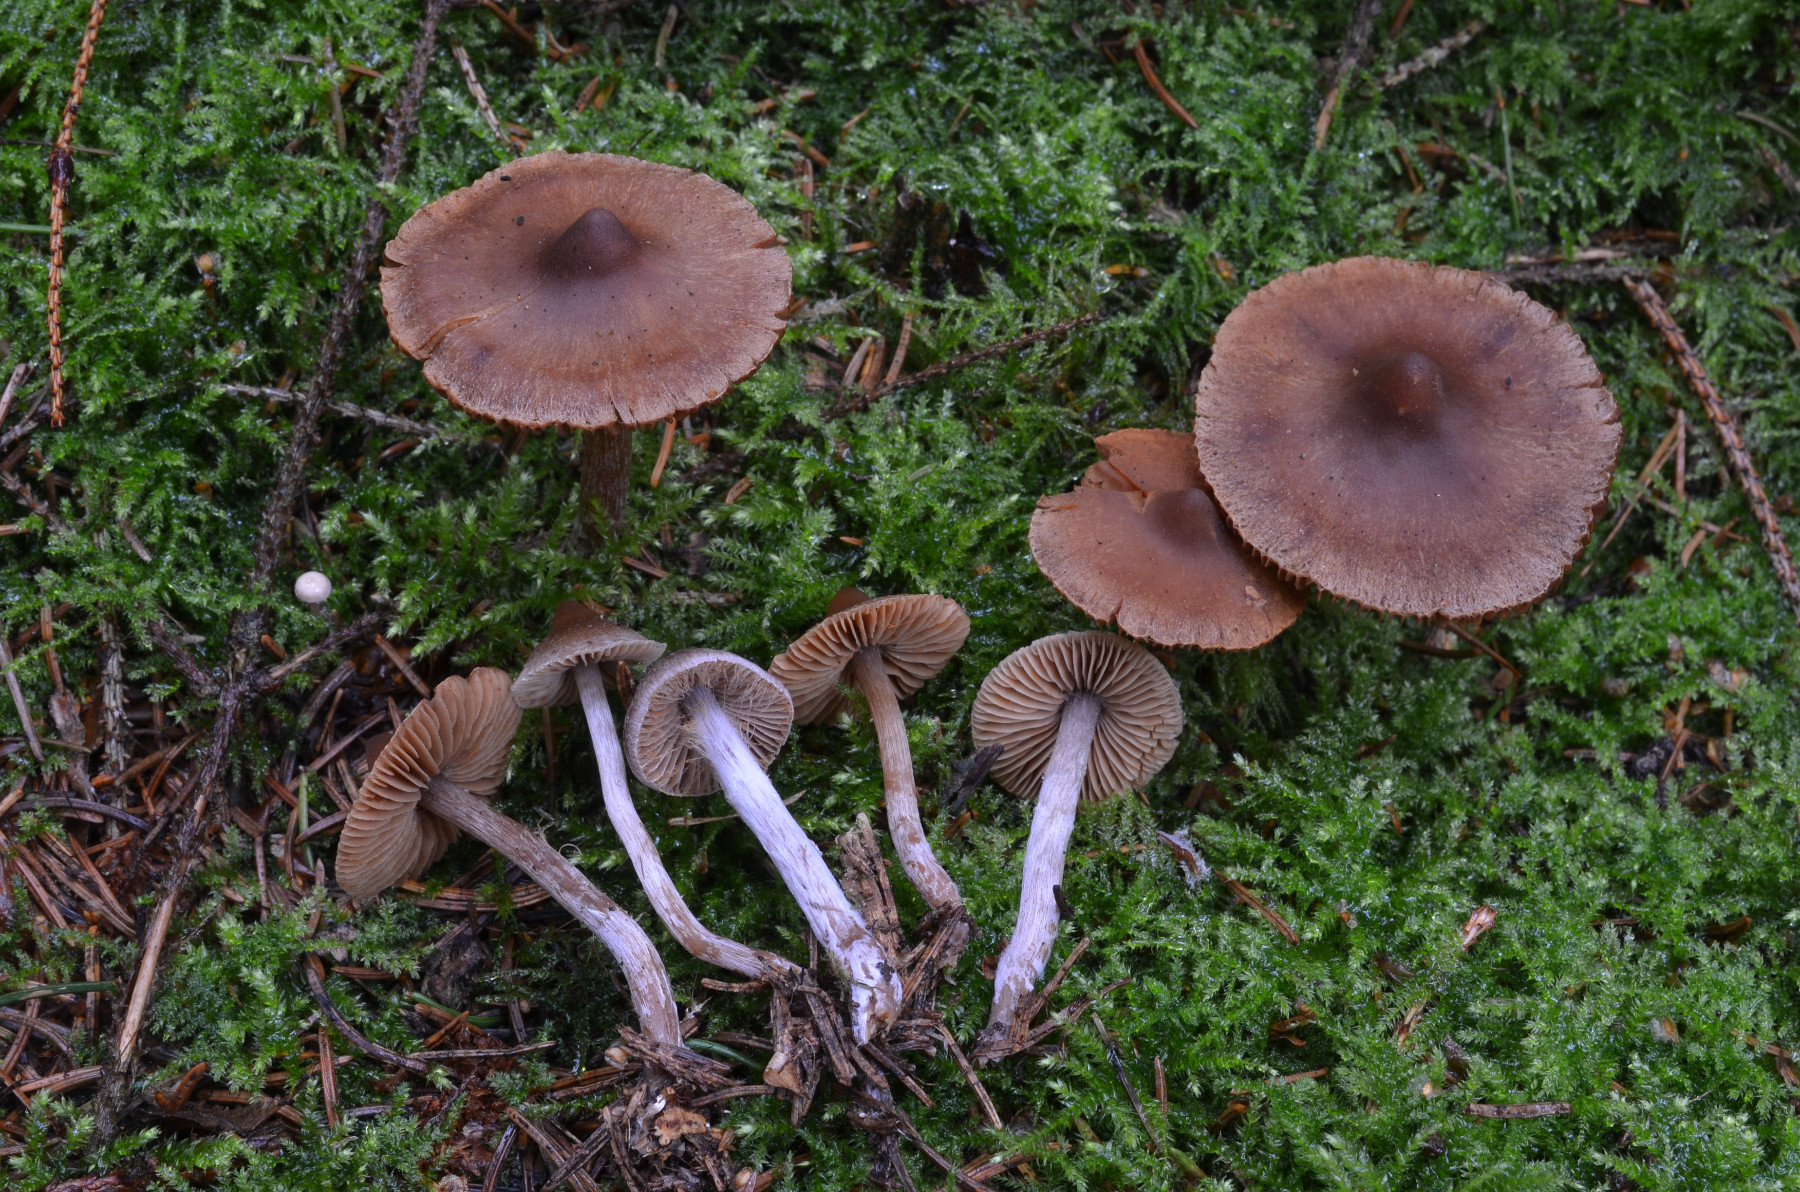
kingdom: Fungi
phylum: Basidiomycota
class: Agaricomycetes
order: Agaricales
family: Cortinariaceae
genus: Cortinarius
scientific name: Cortinarius comptulus
